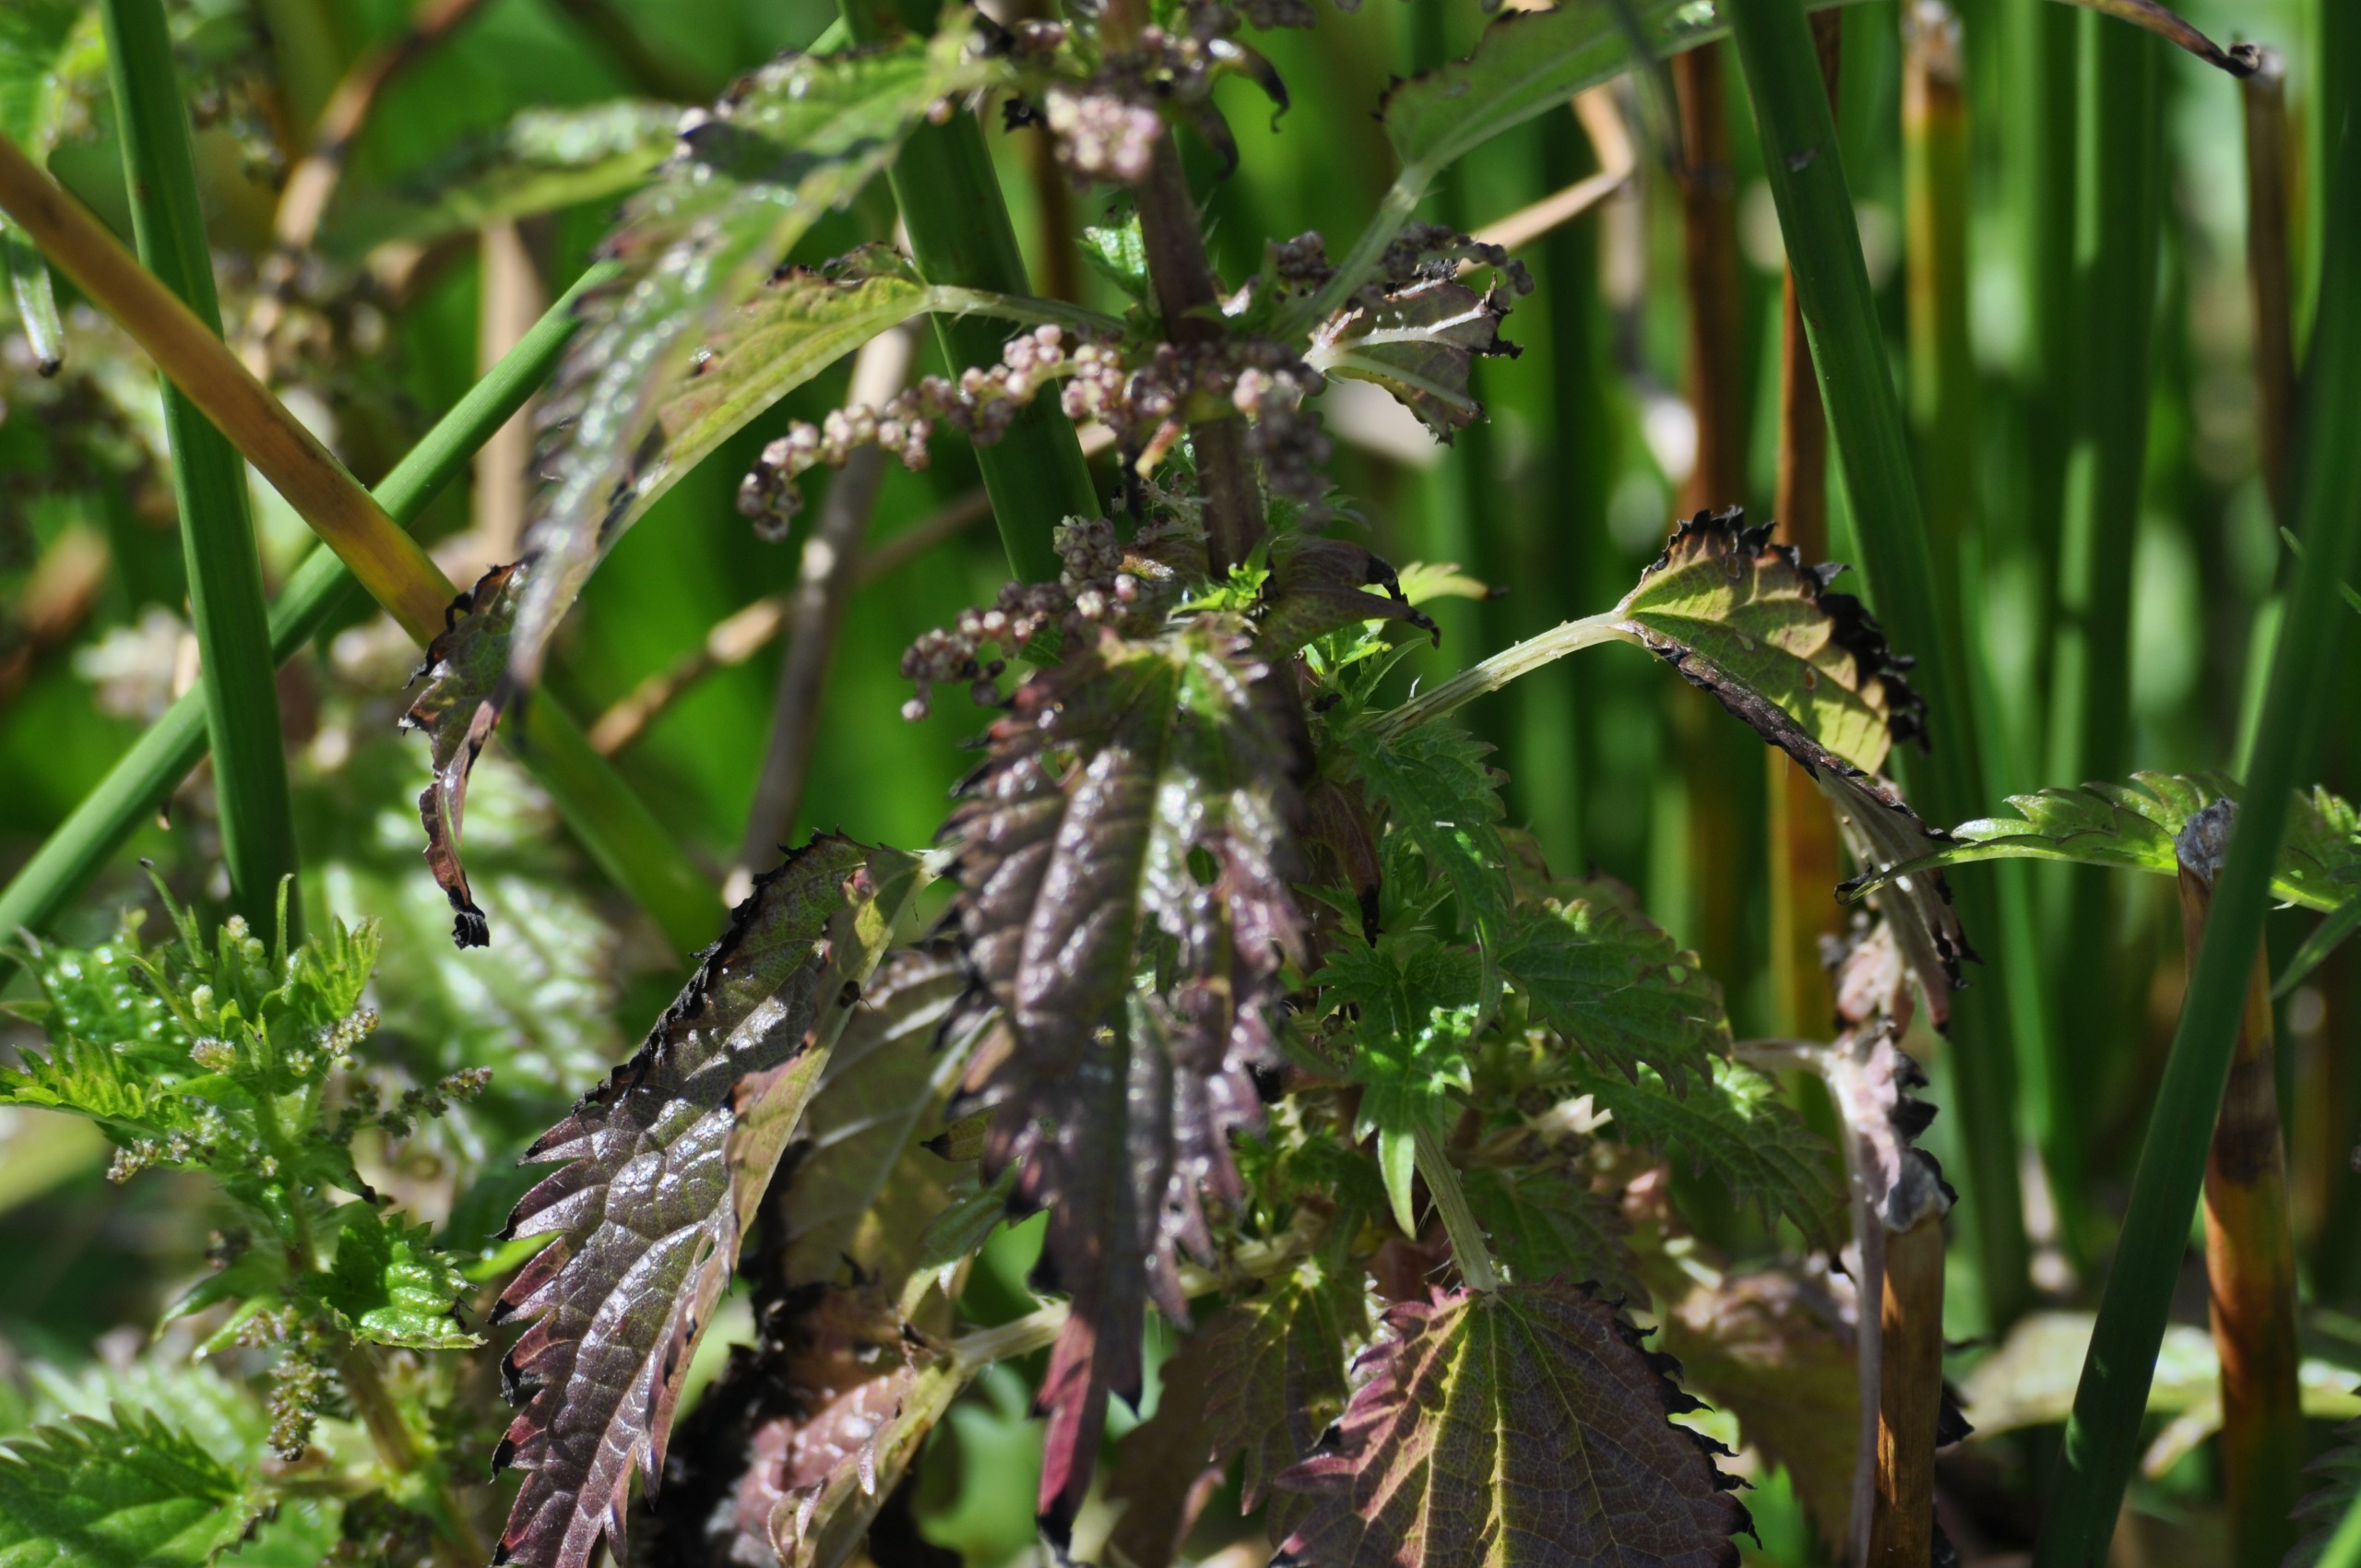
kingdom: Plantae
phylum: Tracheophyta
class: Magnoliopsida
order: Rosales
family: Urticaceae
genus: Urtica
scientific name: Urtica kioviensis
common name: Sump-nælde
